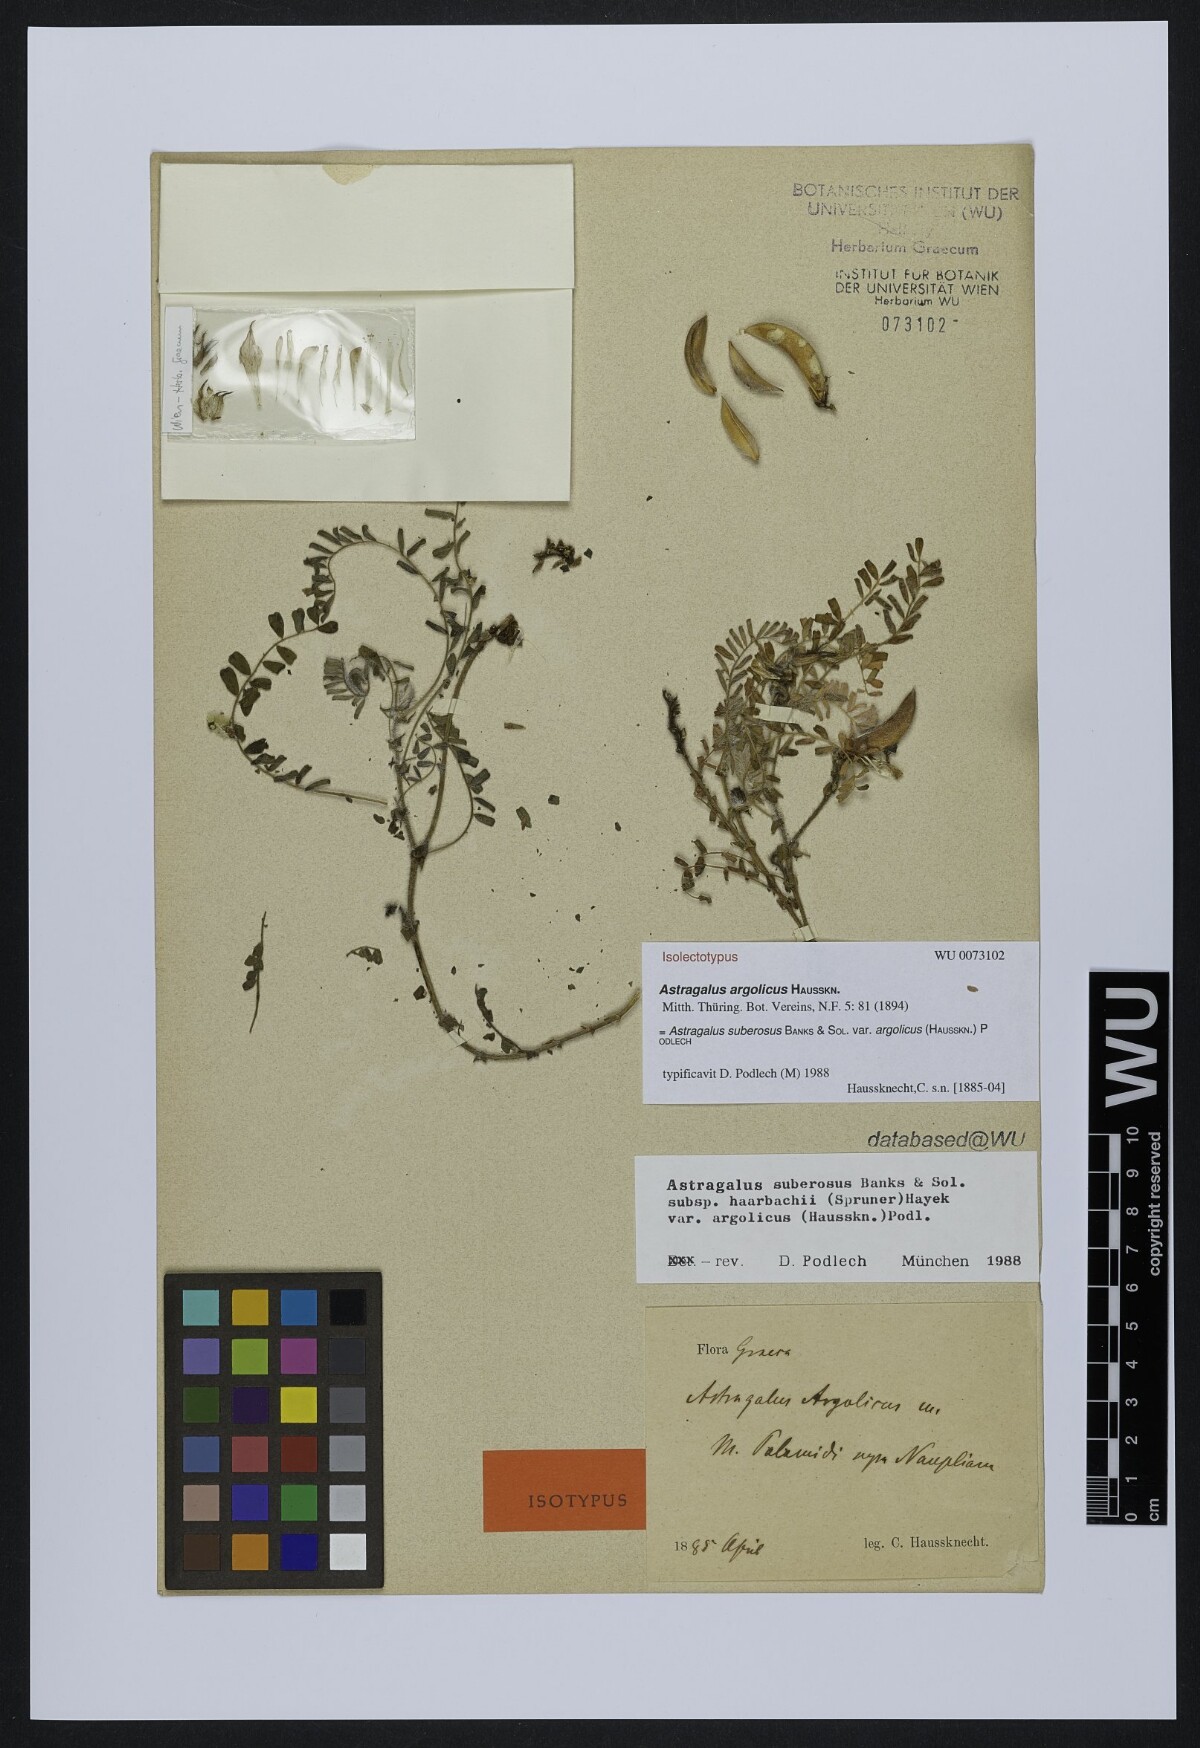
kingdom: Plantae
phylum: Tracheophyta
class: Magnoliopsida
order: Fabales
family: Fabaceae
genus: Astragalus
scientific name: Astragalus suberosus
